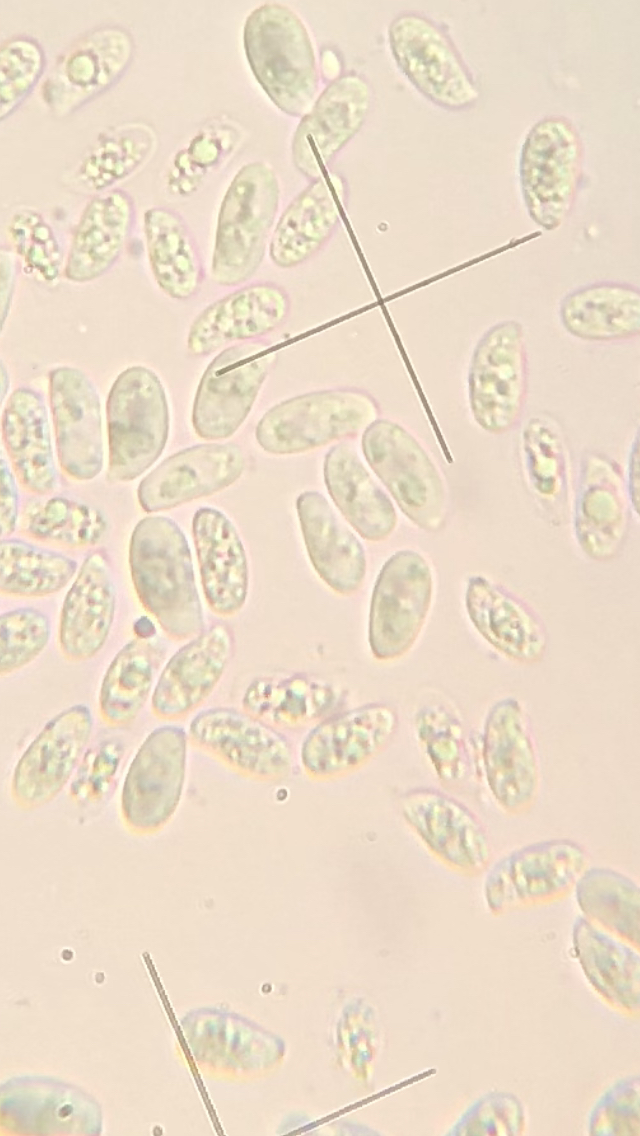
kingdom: Fungi
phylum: Basidiomycota
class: Agaricomycetes
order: Agaricales
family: Physalacriaceae
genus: Flammulina
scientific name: Flammulina velutipes
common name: gul fløjlsfod
